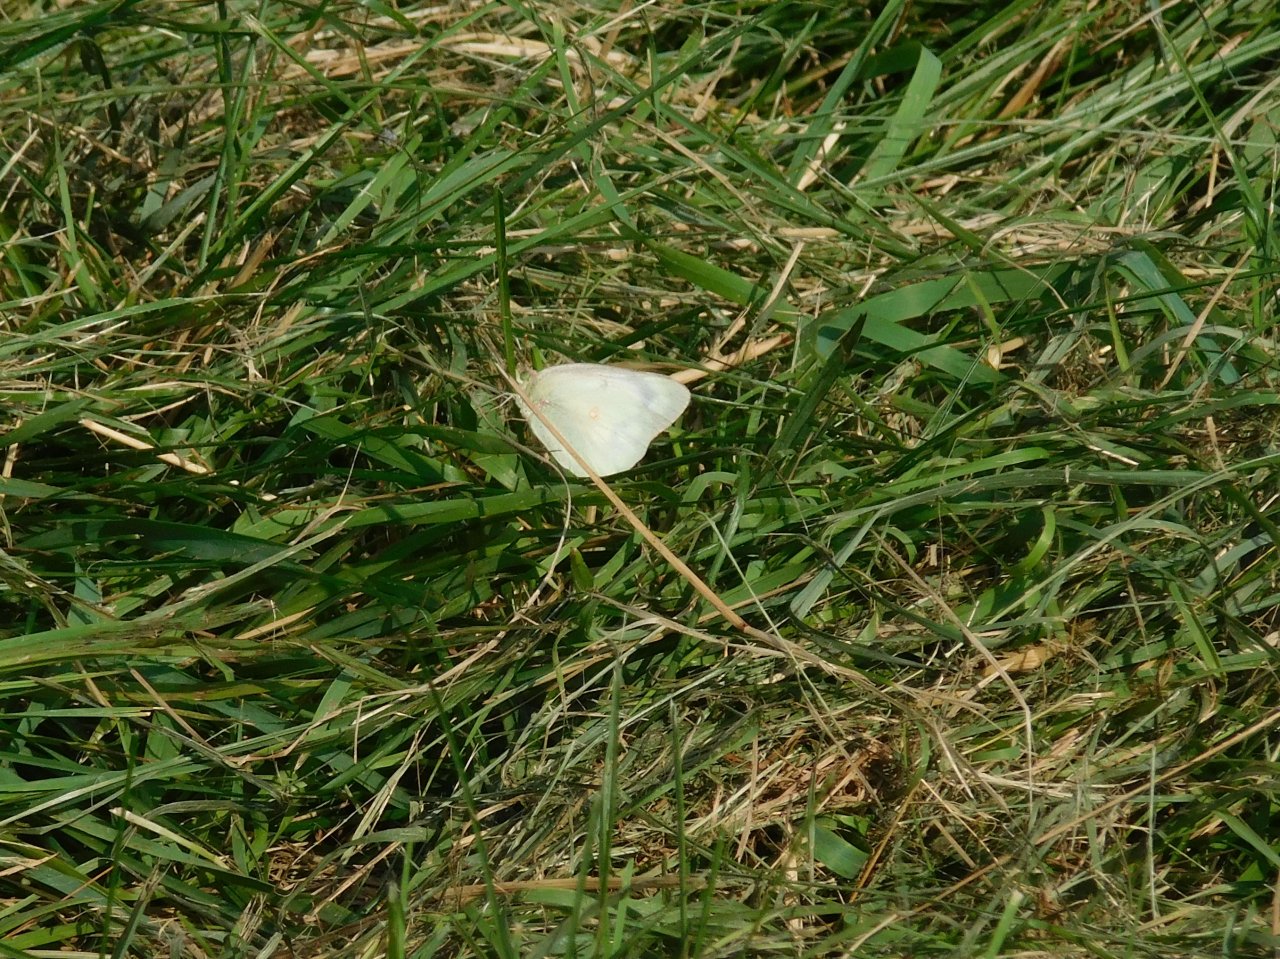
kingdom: Animalia
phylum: Arthropoda
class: Insecta
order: Lepidoptera
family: Pieridae
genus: Colias
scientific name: Colias philodice
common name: Clouded Sulphur
